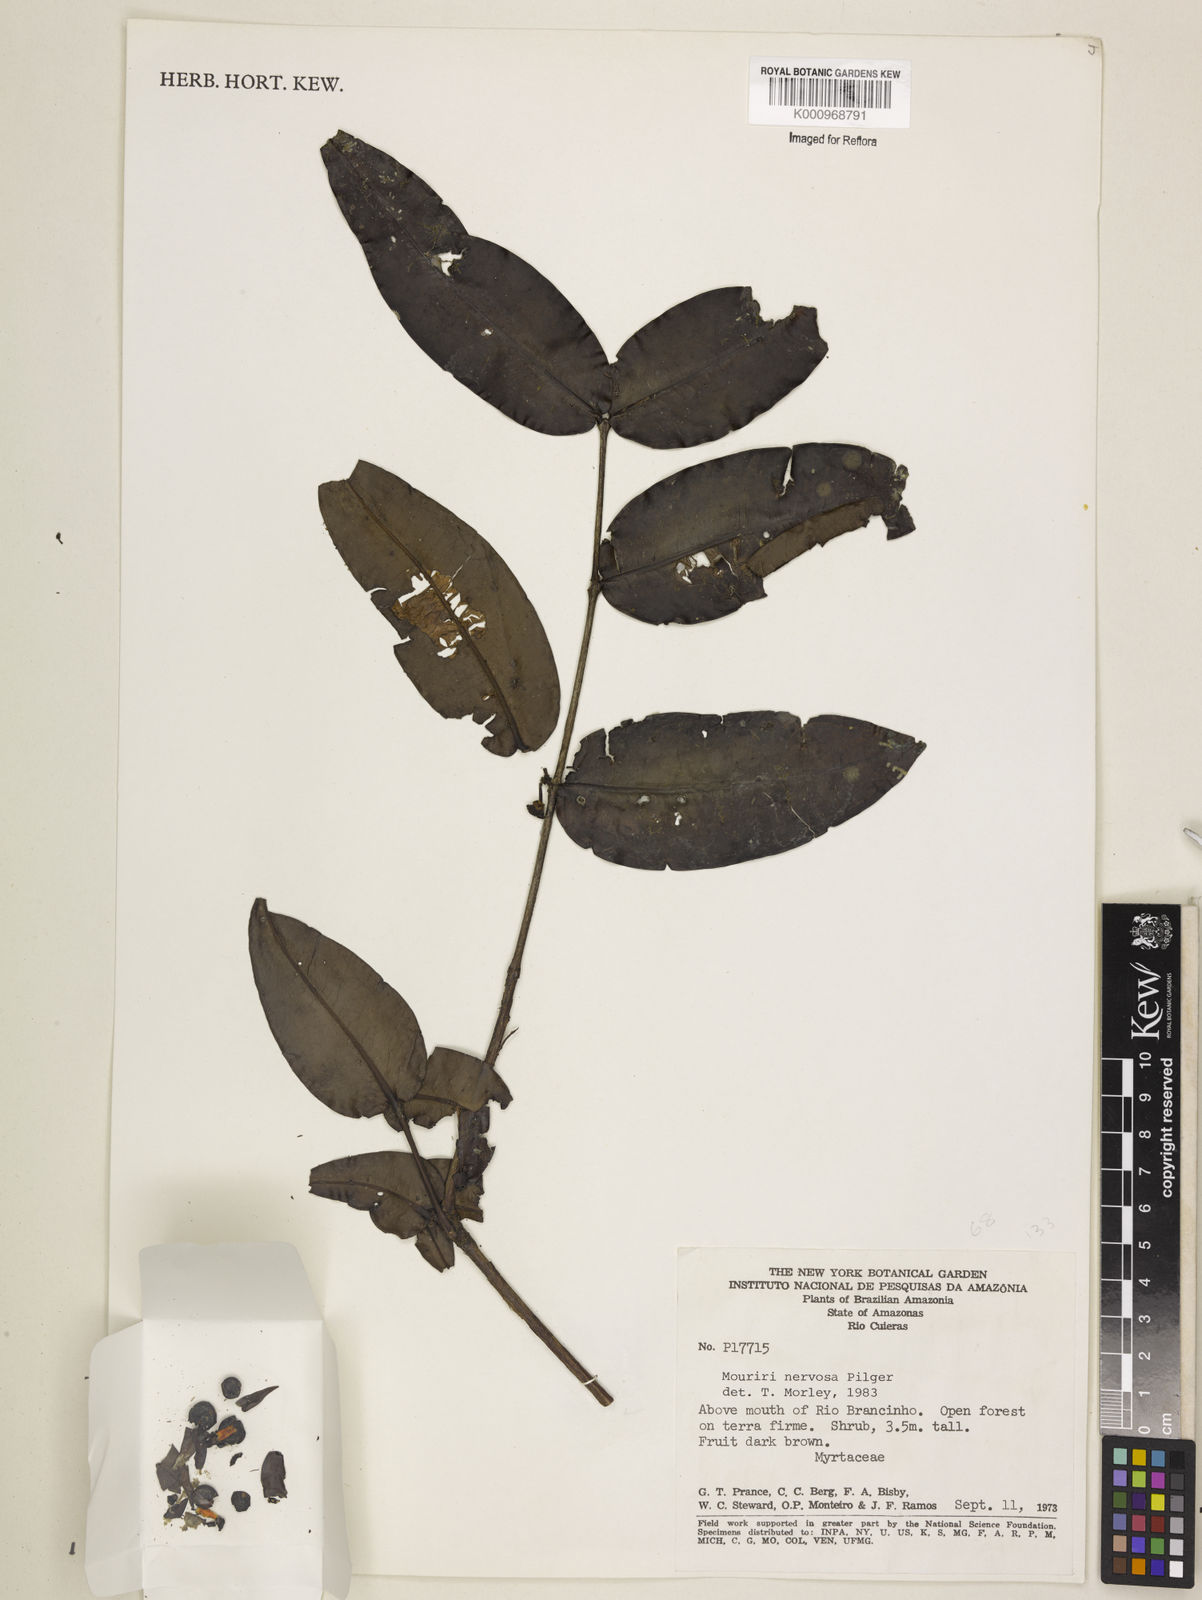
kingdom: Plantae
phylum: Tracheophyta
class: Magnoliopsida
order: Myrtales
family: Melastomataceae
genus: Mouriri
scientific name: Mouriri sideroxylon
